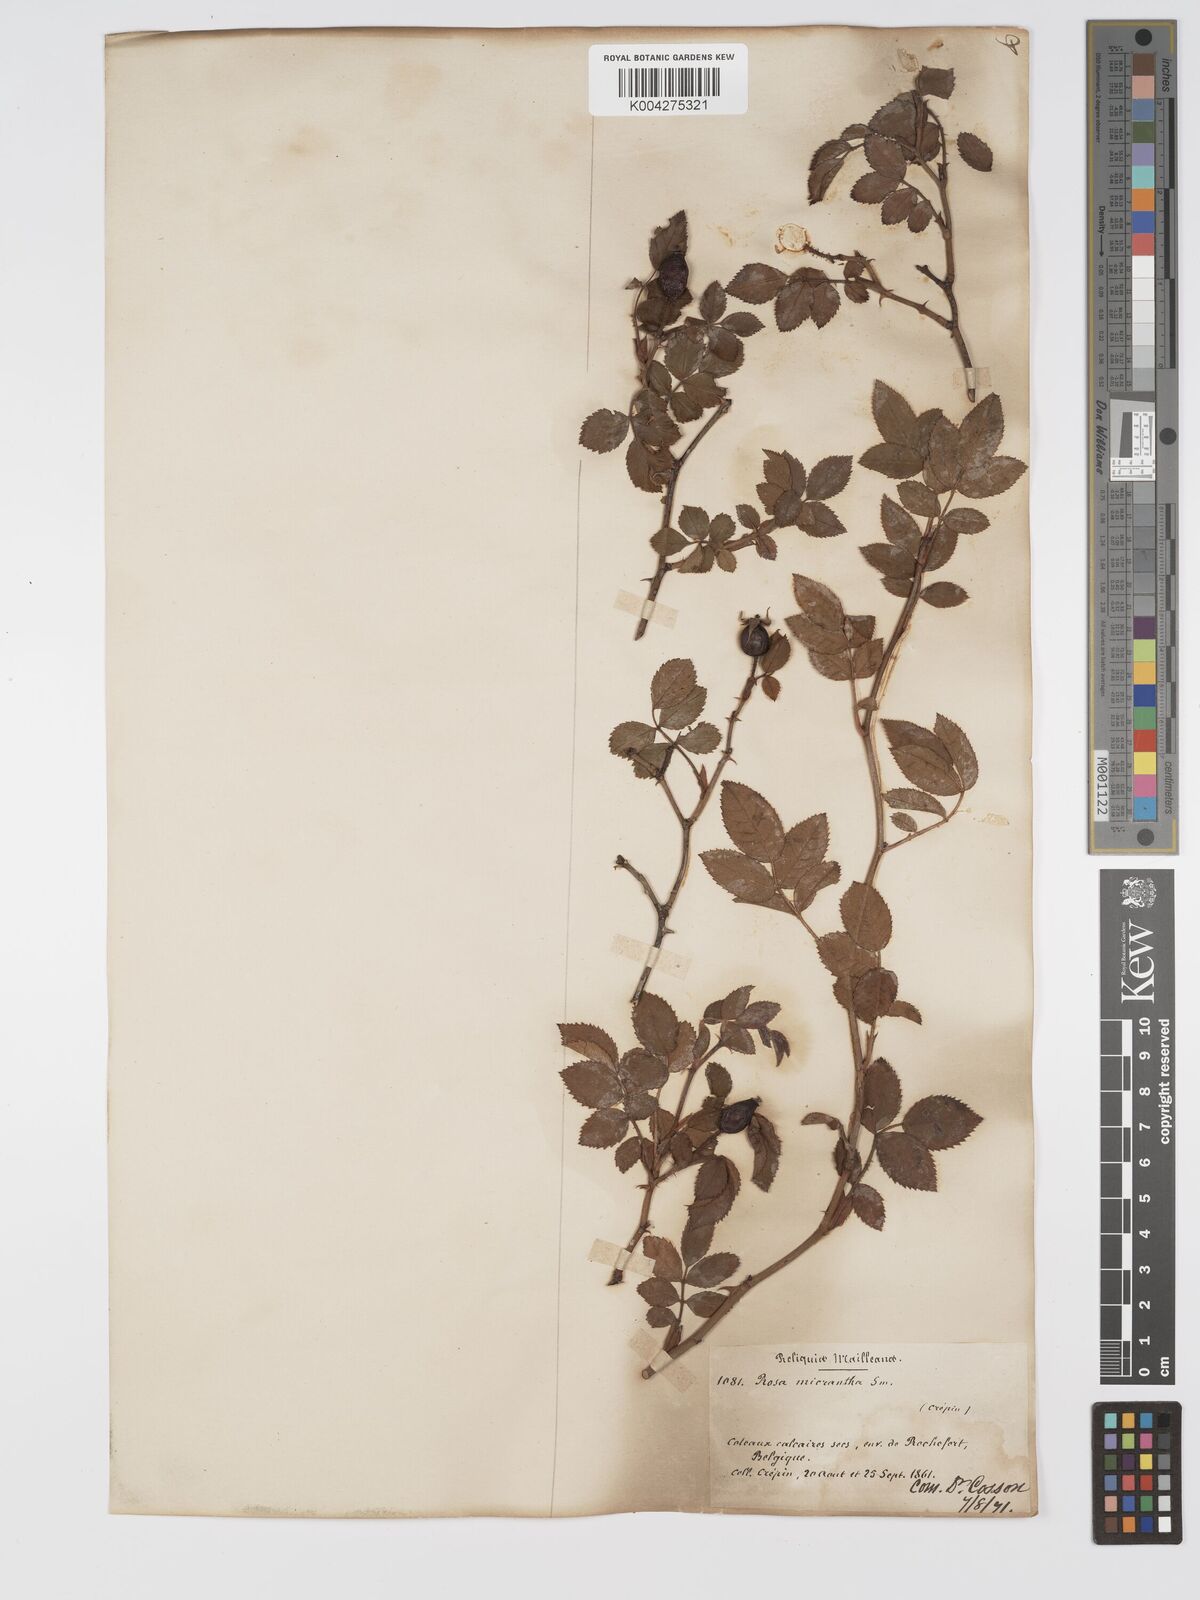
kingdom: Plantae
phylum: Tracheophyta
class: Magnoliopsida
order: Rosales
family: Rosaceae
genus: Rosa
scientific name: Rosa
